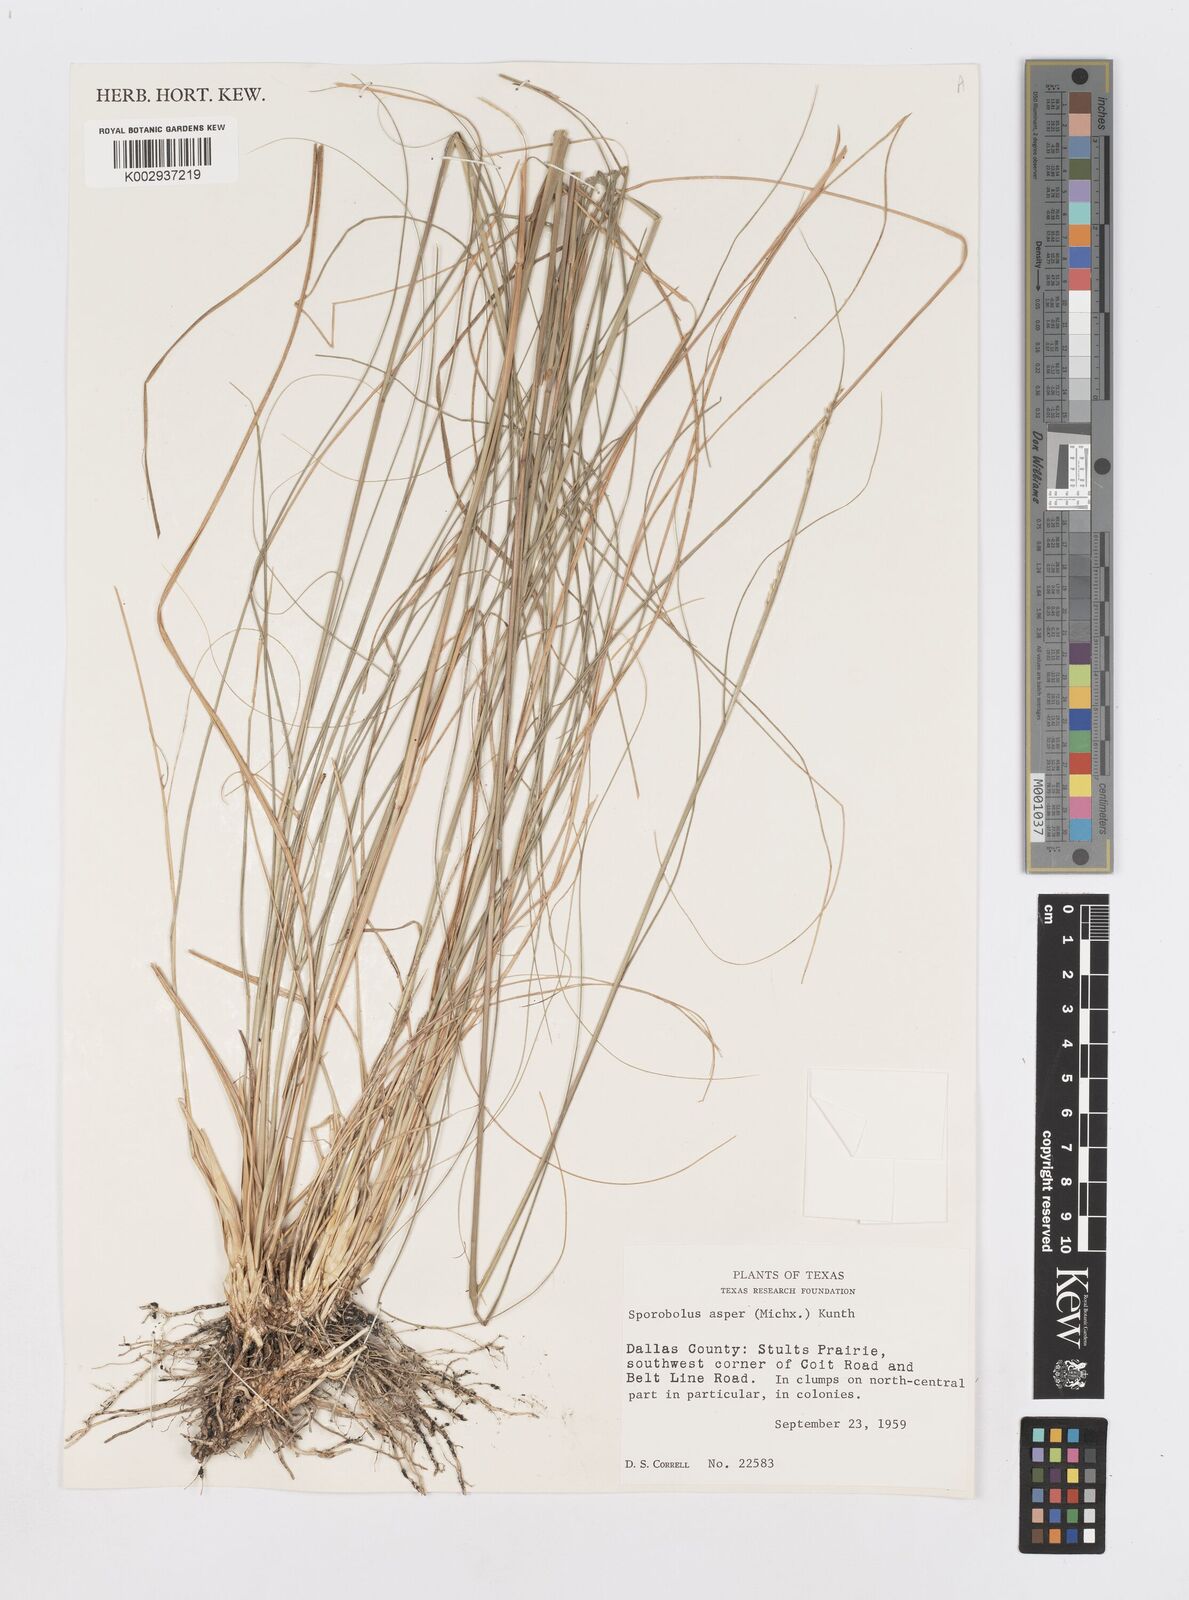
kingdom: Plantae
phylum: Tracheophyta
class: Liliopsida
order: Poales
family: Poaceae
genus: Sporobolus
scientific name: Sporobolus compositus
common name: Rough dropseed
